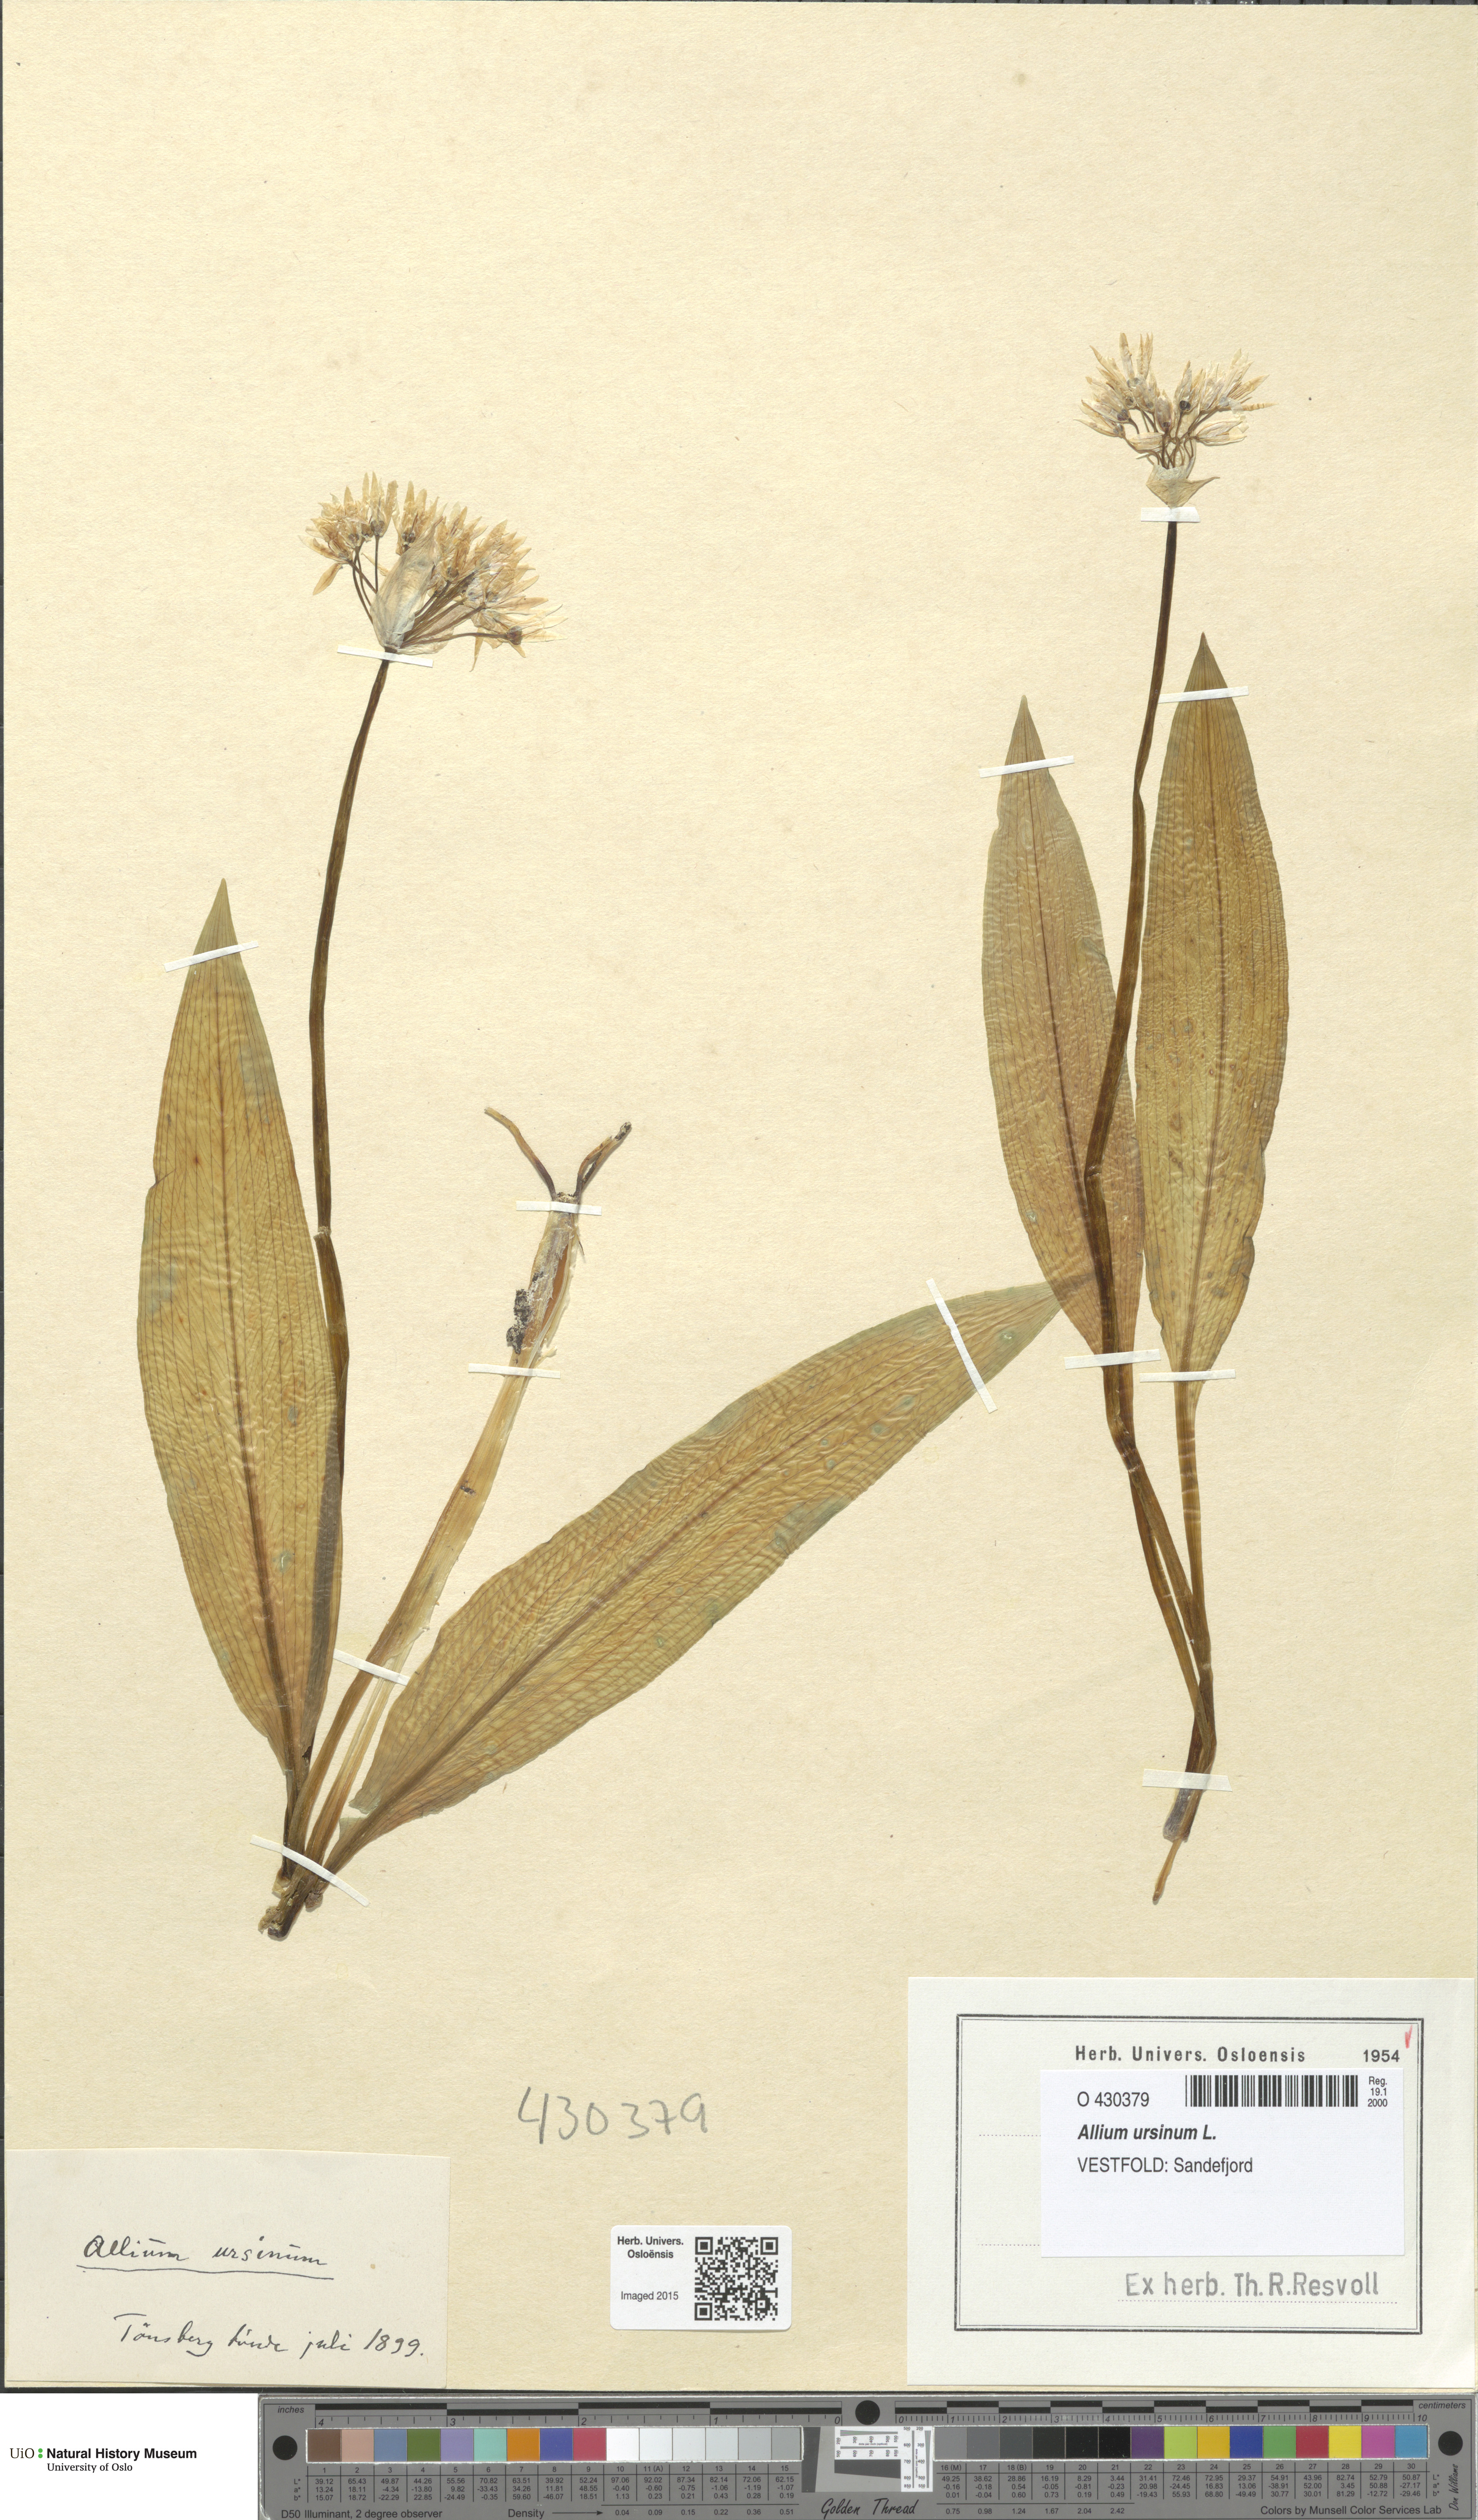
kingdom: Plantae
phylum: Tracheophyta
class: Liliopsida
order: Asparagales
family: Amaryllidaceae
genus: Allium
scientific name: Allium ursinum
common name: Ramsons
